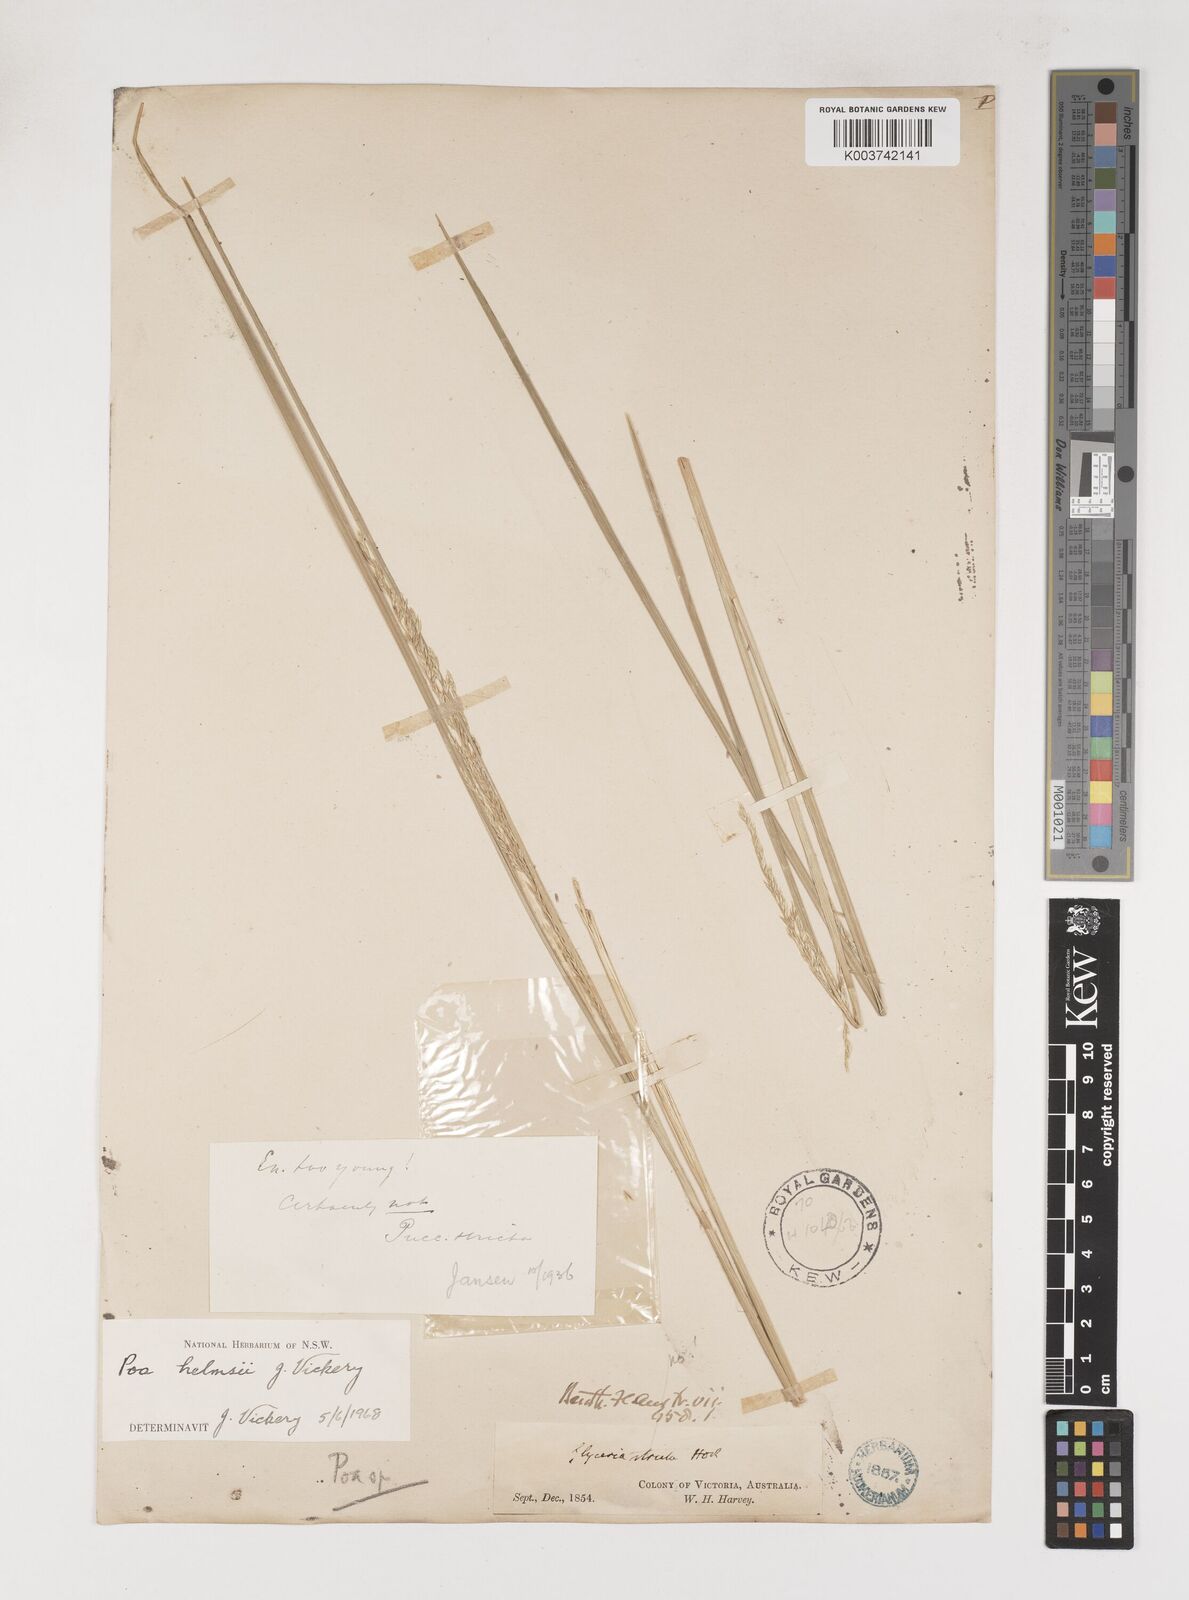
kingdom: Plantae
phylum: Tracheophyta
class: Liliopsida
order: Poales
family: Poaceae
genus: Poa
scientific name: Poa helmsii
